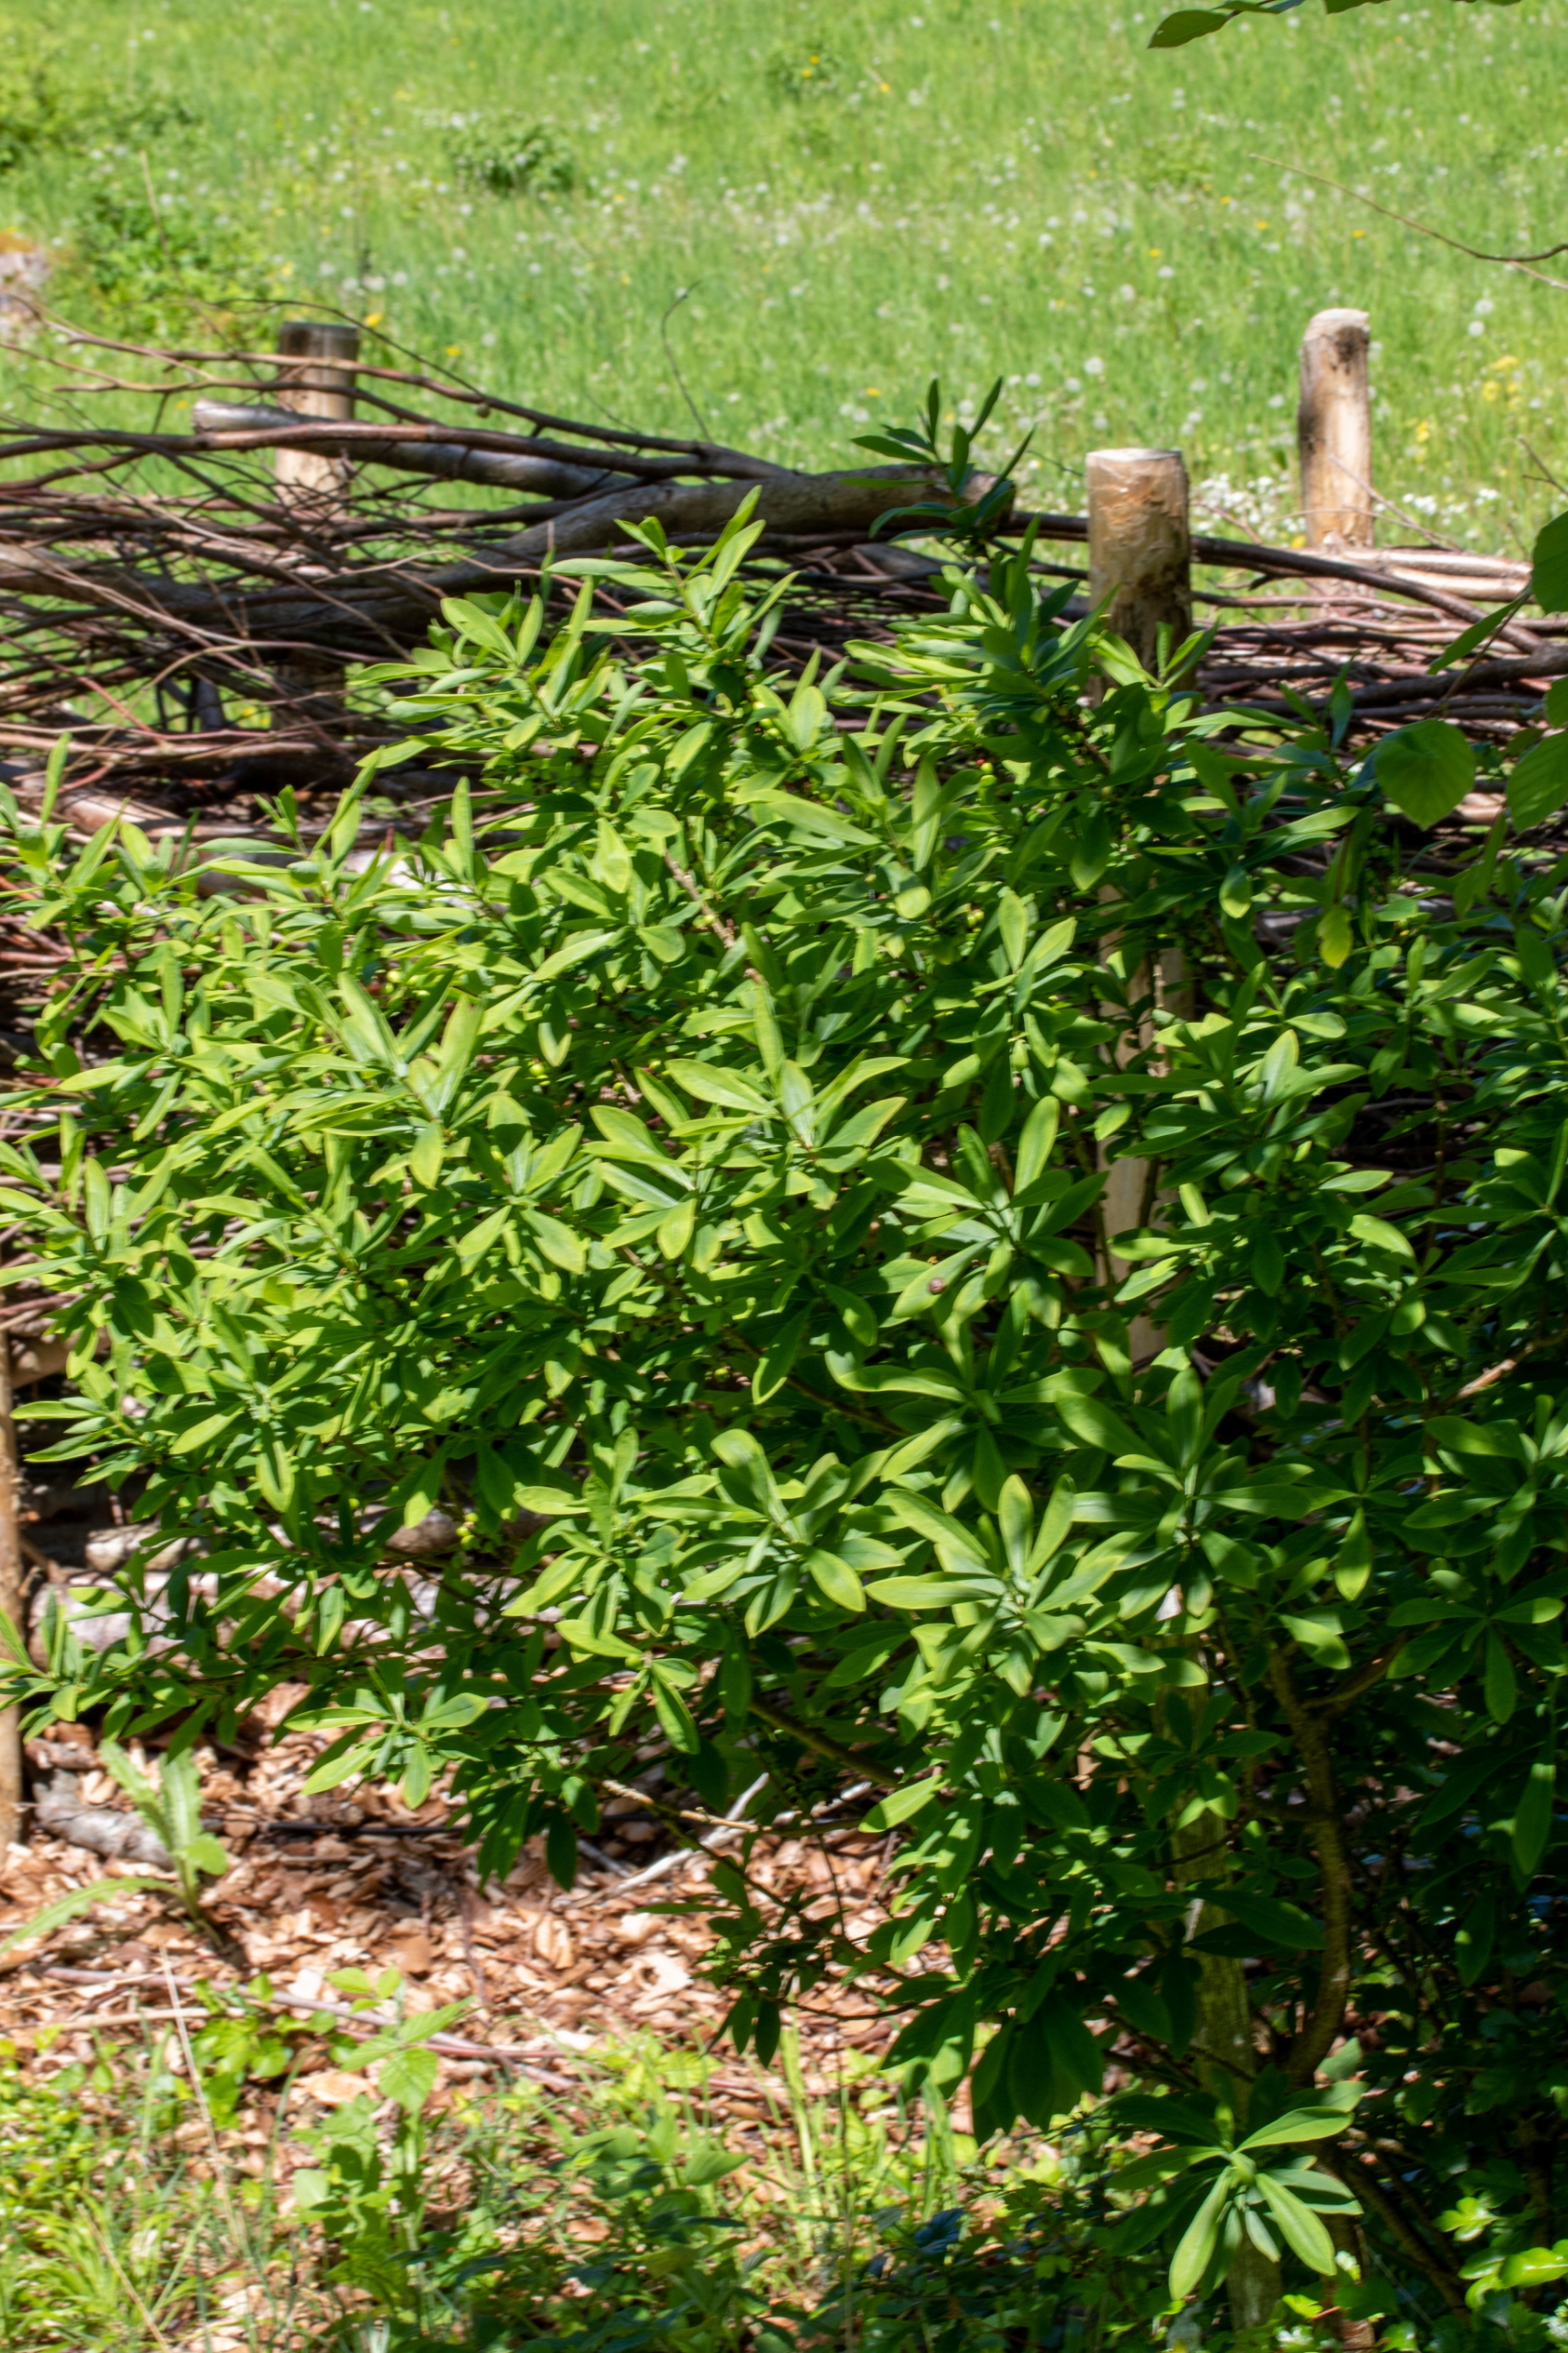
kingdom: Plantae
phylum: Tracheophyta
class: Magnoliopsida
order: Malvales
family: Thymelaeaceae
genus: Daphne
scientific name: Daphne mezereum
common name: Pebertræ
